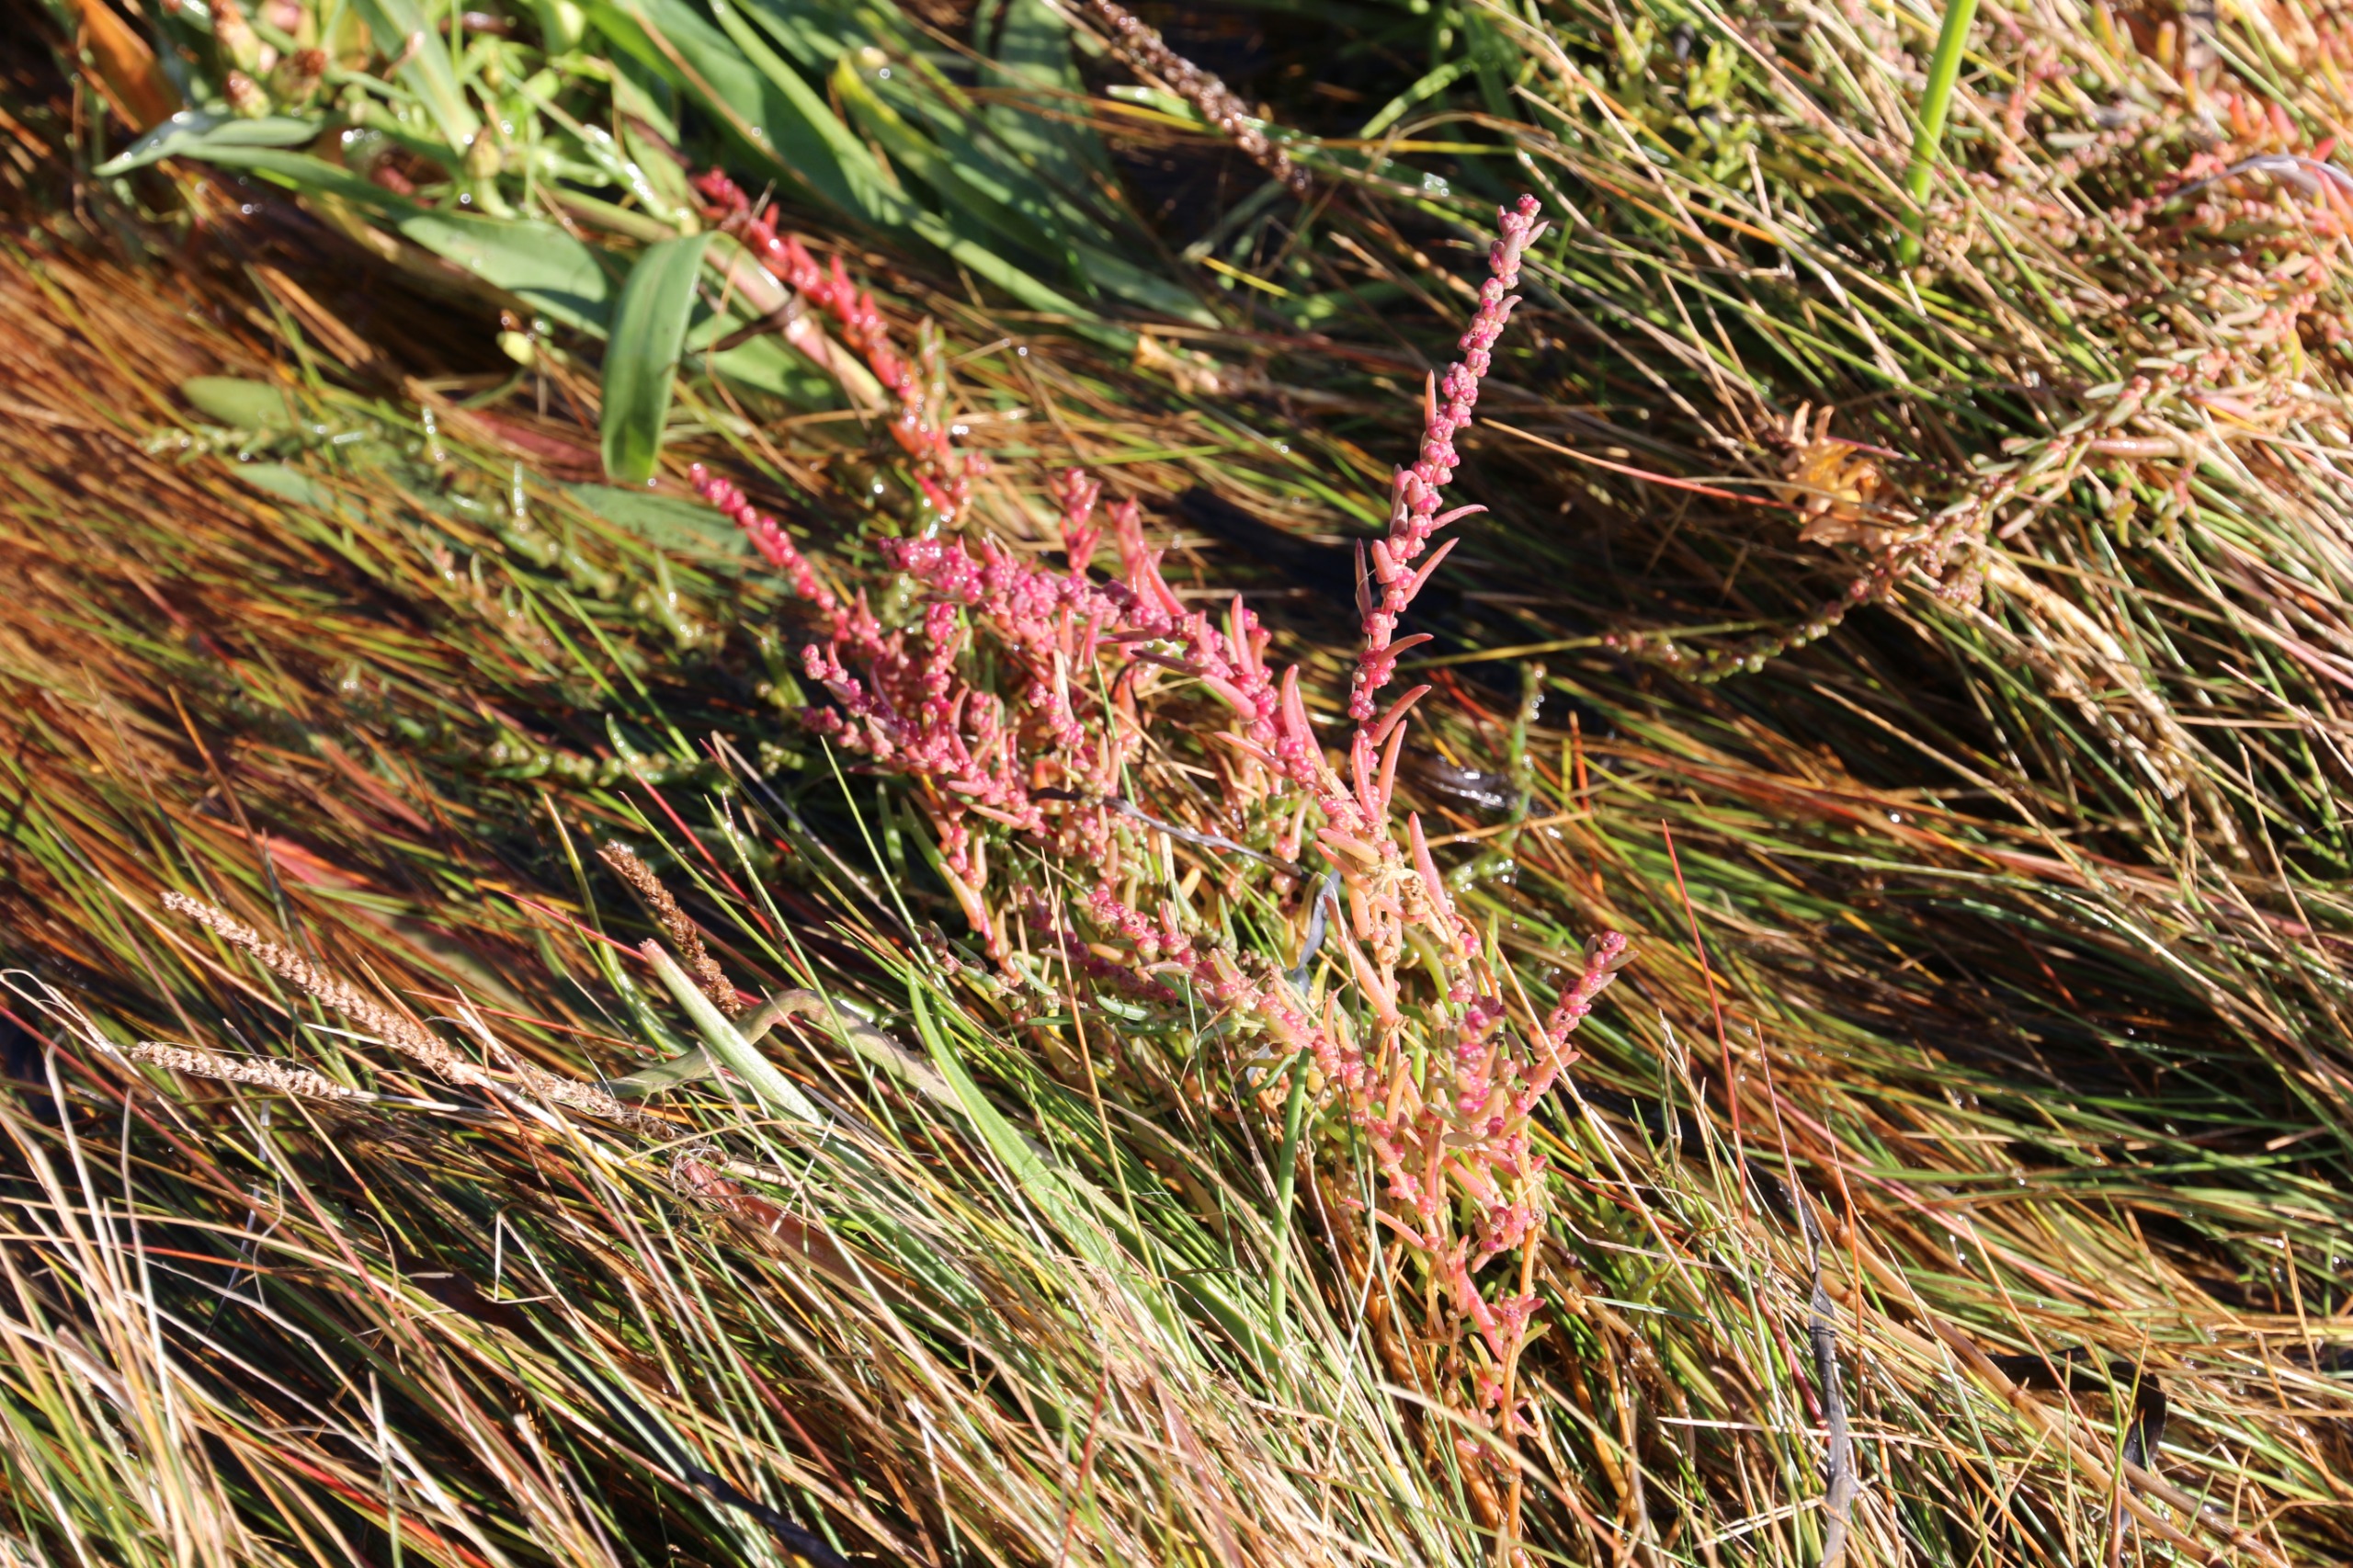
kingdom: Plantae
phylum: Tracheophyta
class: Magnoliopsida
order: Caryophyllales
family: Amaranthaceae
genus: Suaeda
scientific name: Suaeda maritima
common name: Strandgåsefod
